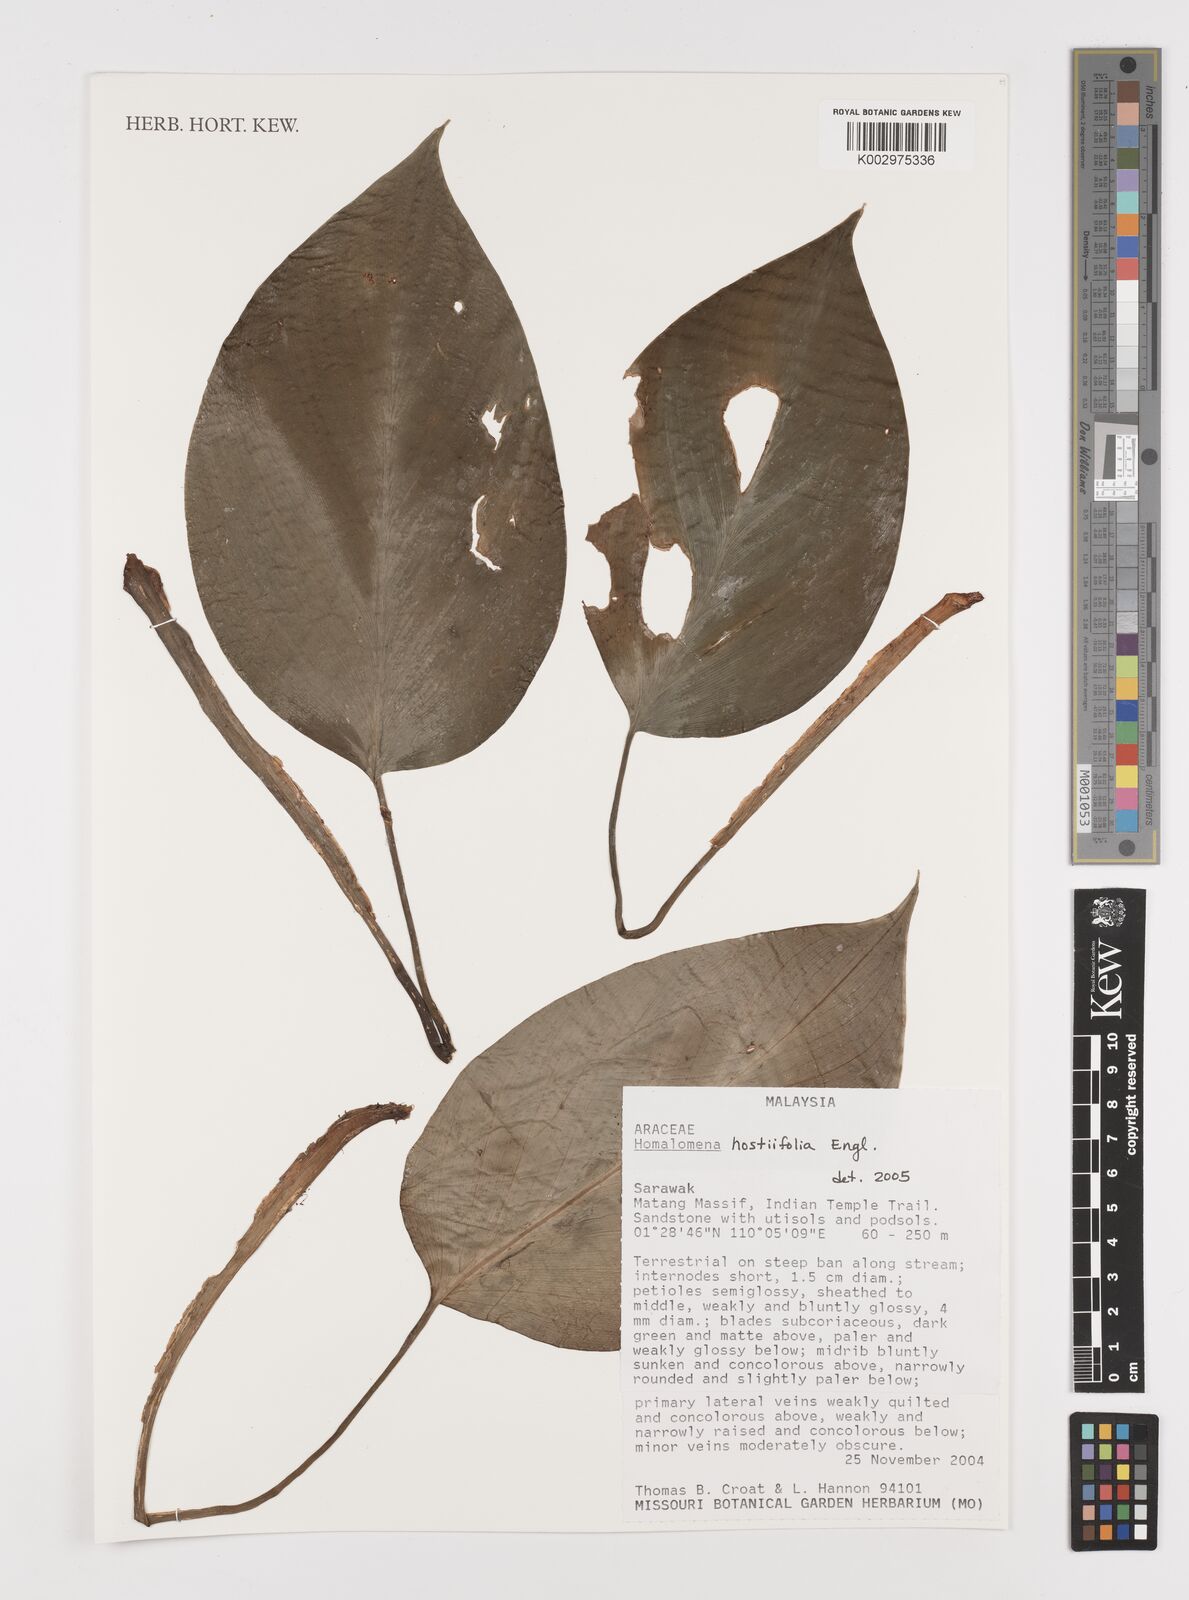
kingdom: Plantae
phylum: Tracheophyta
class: Liliopsida
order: Alismatales
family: Araceae
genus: Homalomena
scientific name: Homalomena ovata
